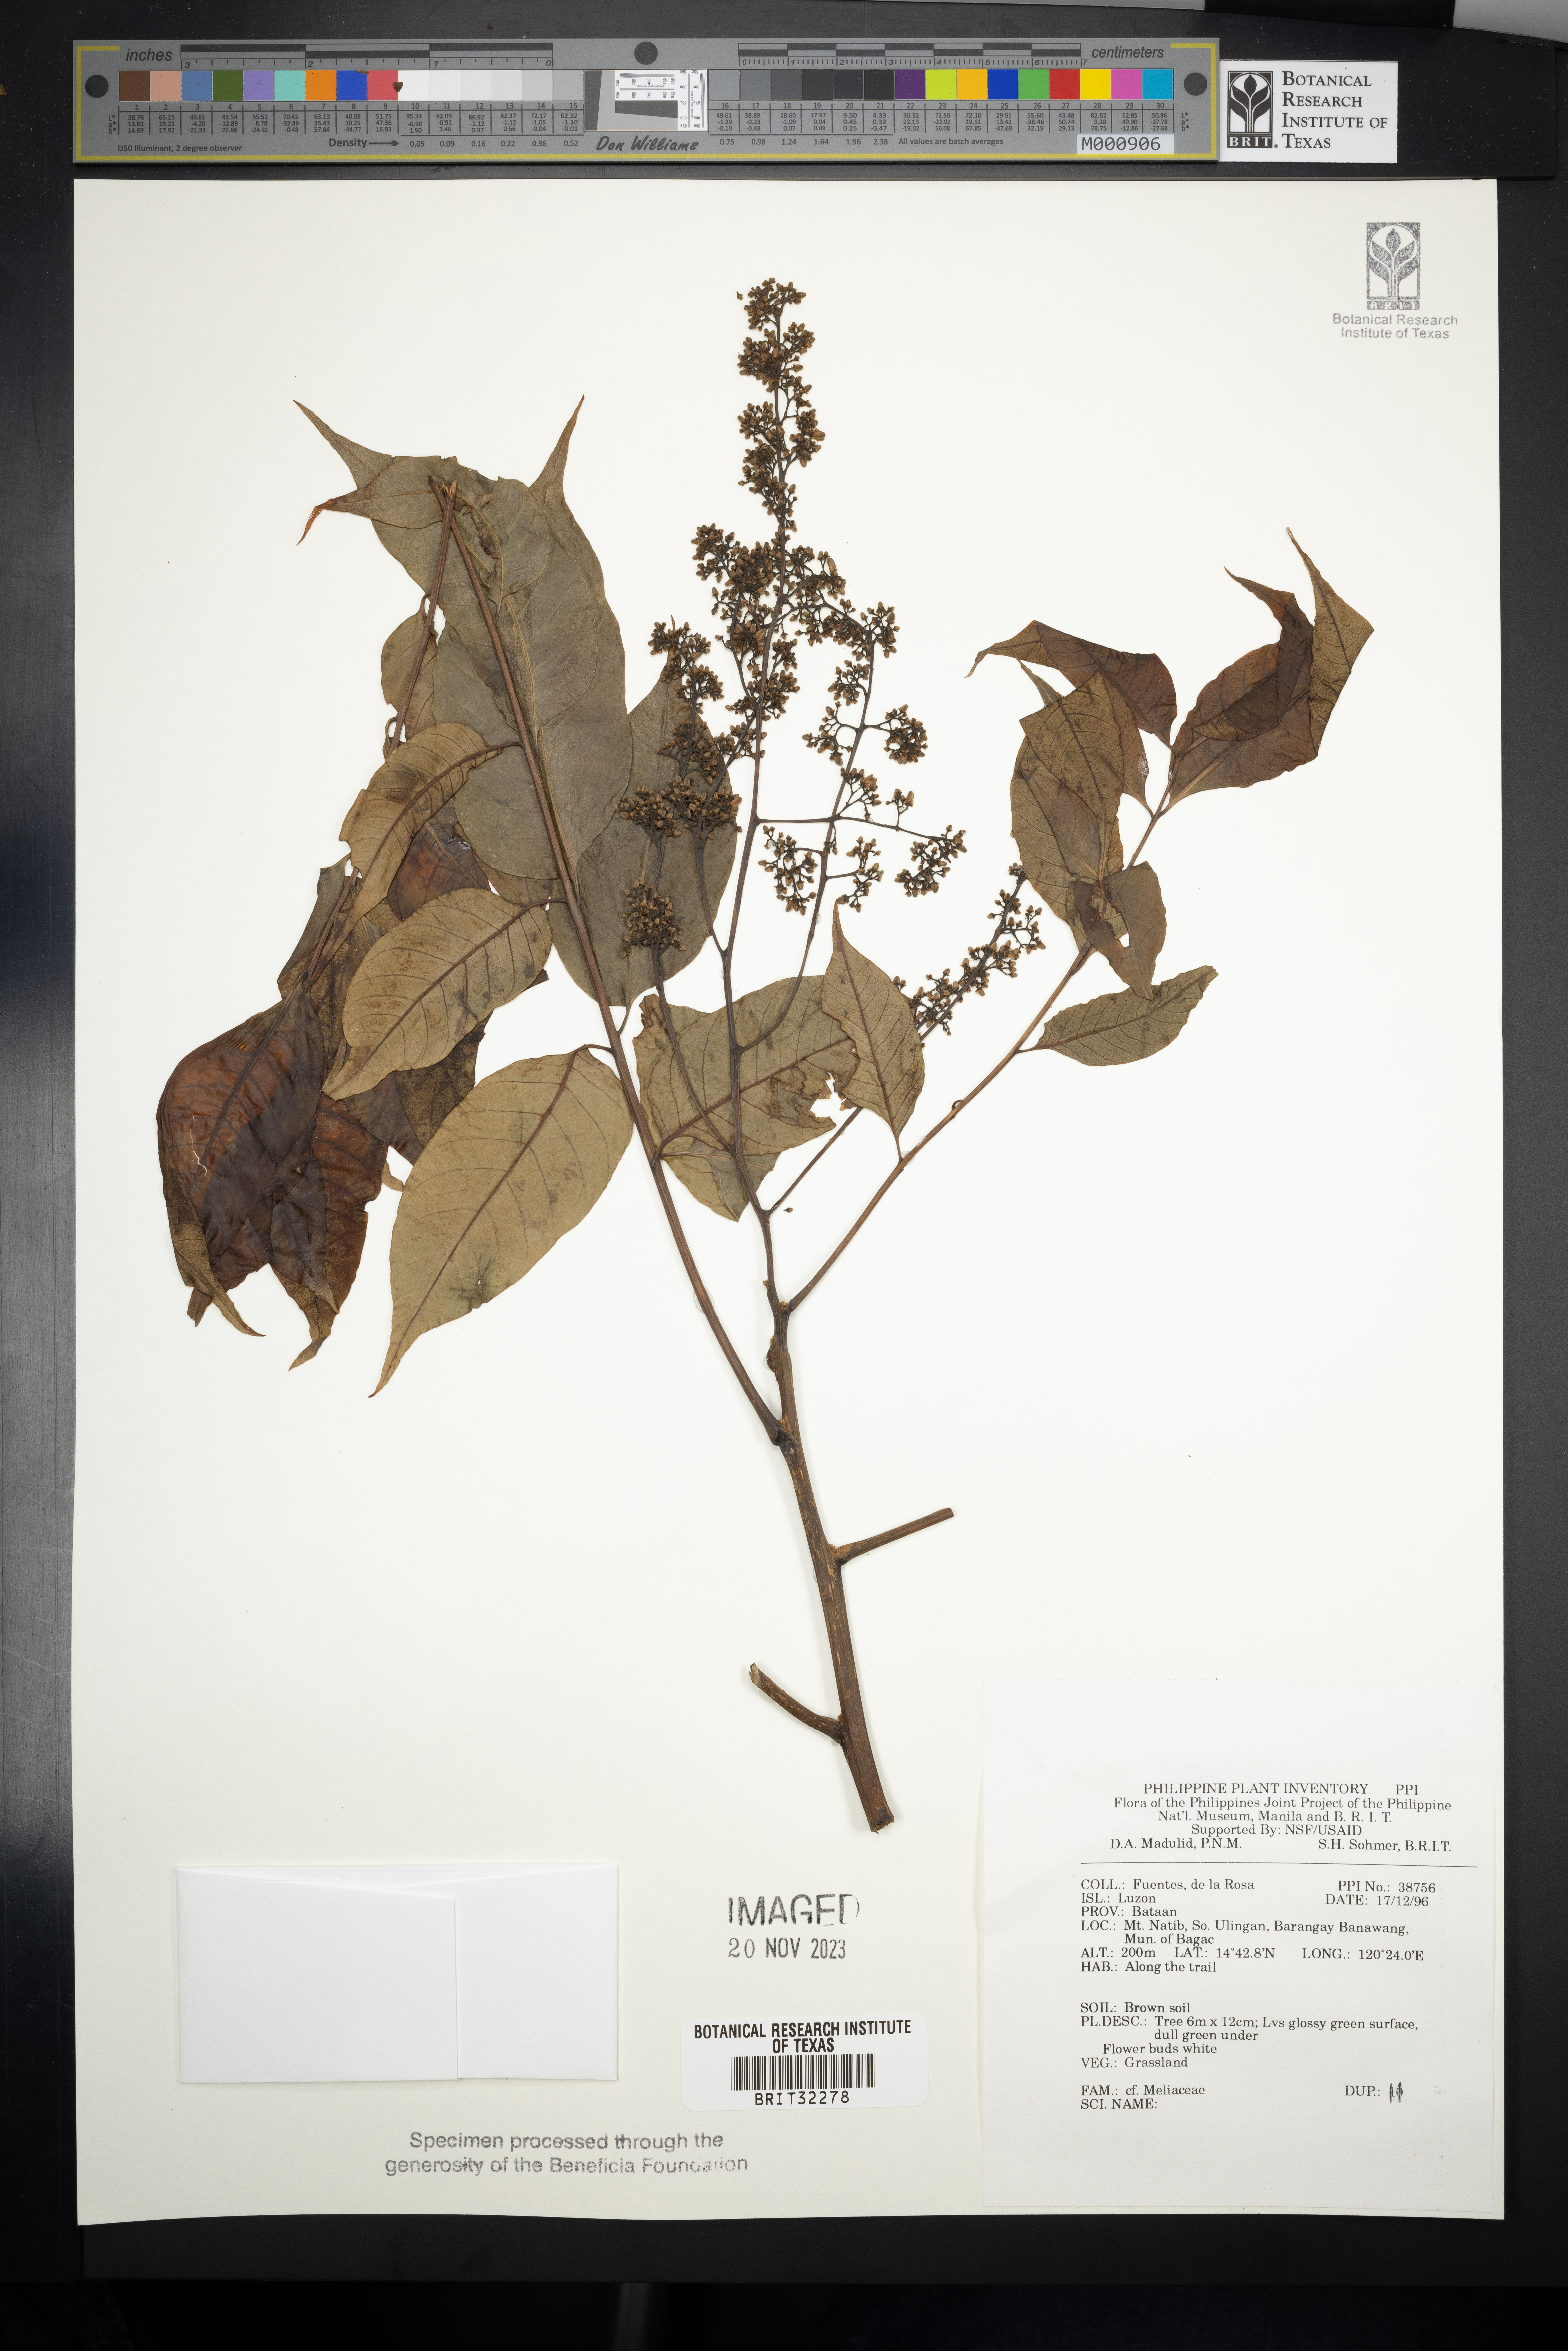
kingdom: Plantae
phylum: Tracheophyta
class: Magnoliopsida
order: Sapindales
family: Meliaceae
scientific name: Meliaceae
